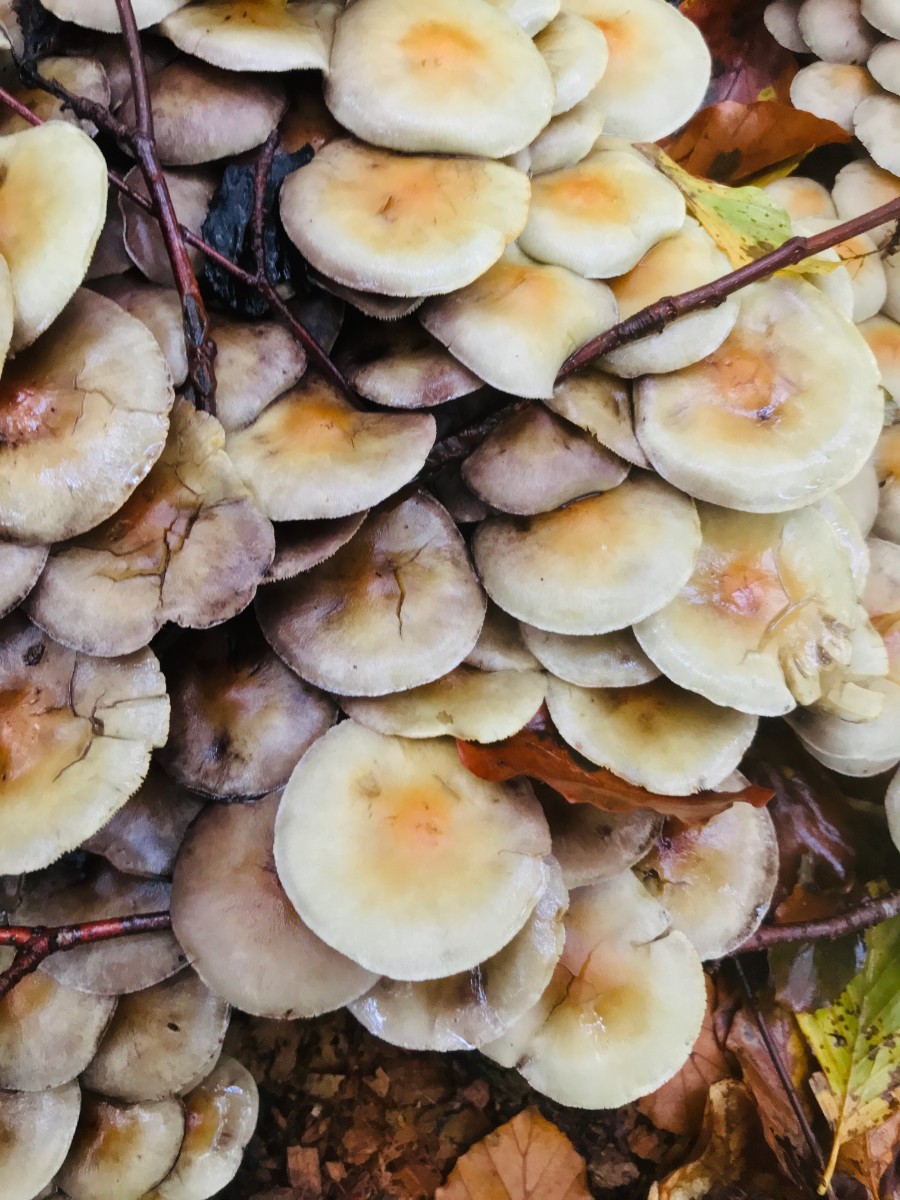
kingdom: Fungi
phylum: Basidiomycota
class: Agaricomycetes
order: Agaricales
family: Strophariaceae
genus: Hypholoma
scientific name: Hypholoma fasciculare
